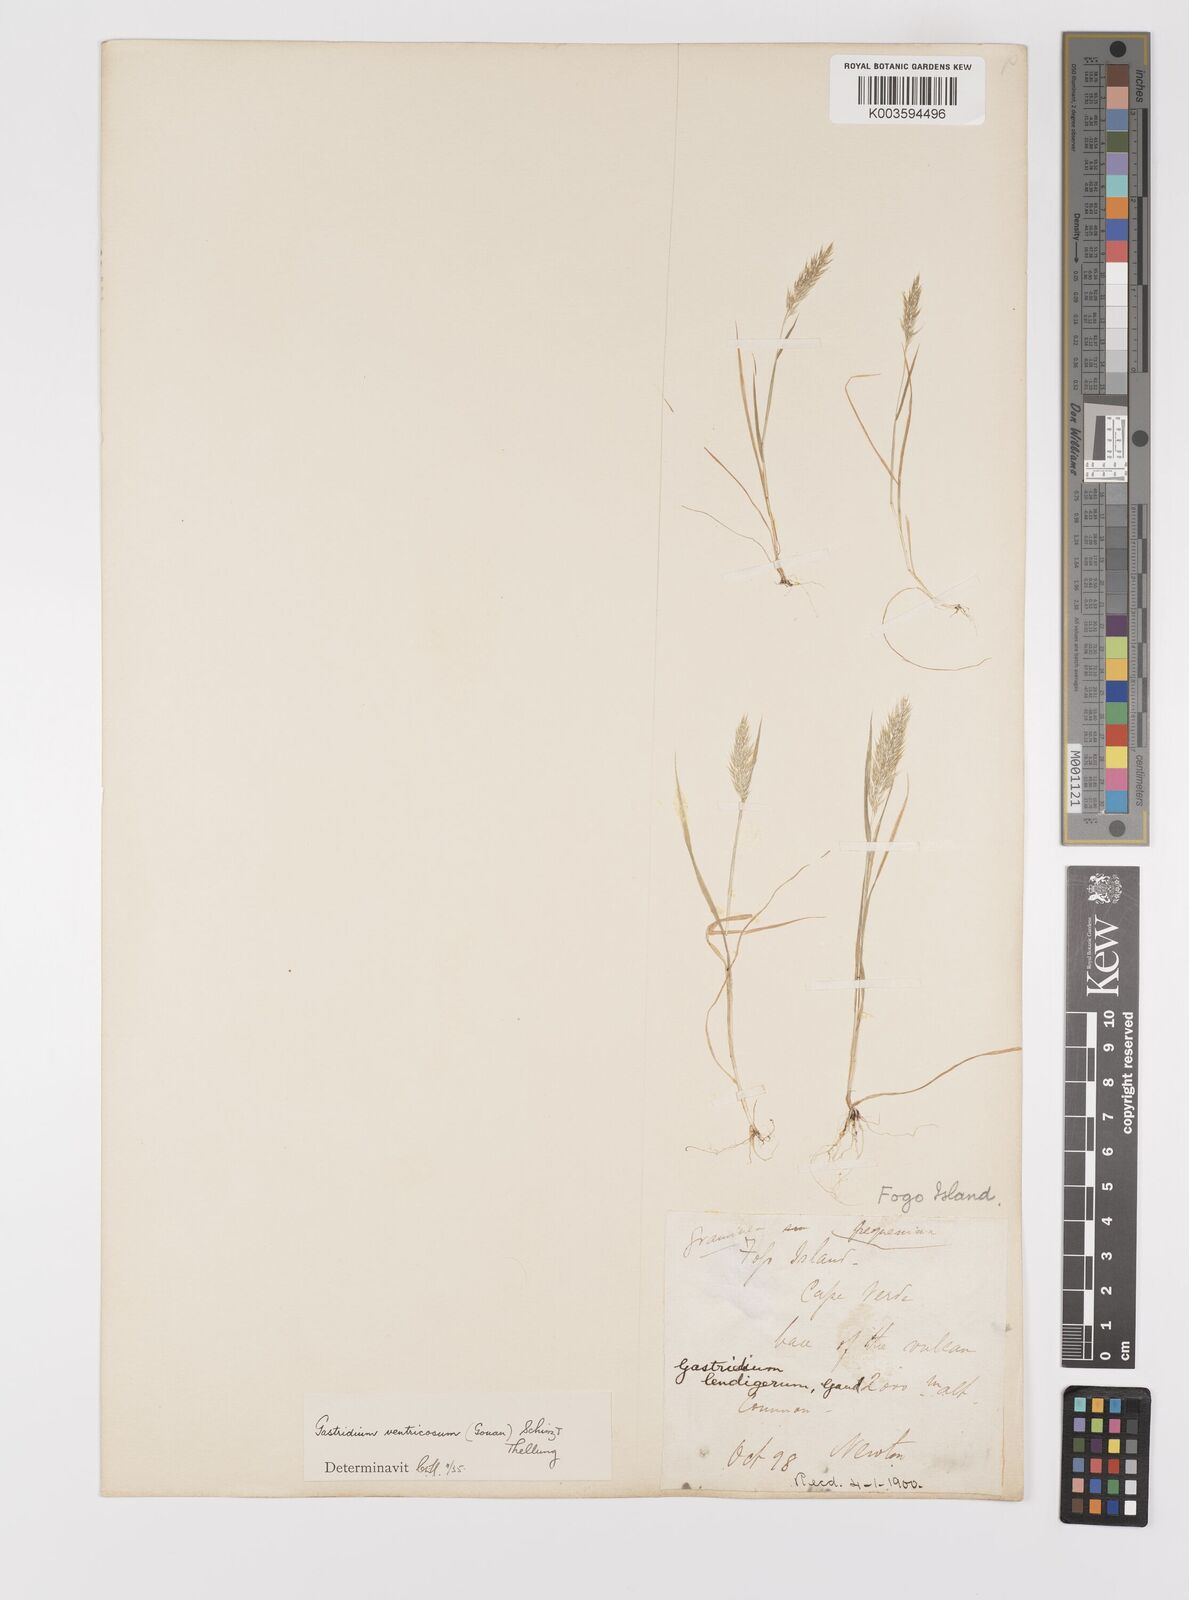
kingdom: Plantae
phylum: Tracheophyta
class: Liliopsida
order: Poales
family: Poaceae
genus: Gastridium
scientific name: Gastridium phleoides
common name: Nit grass
